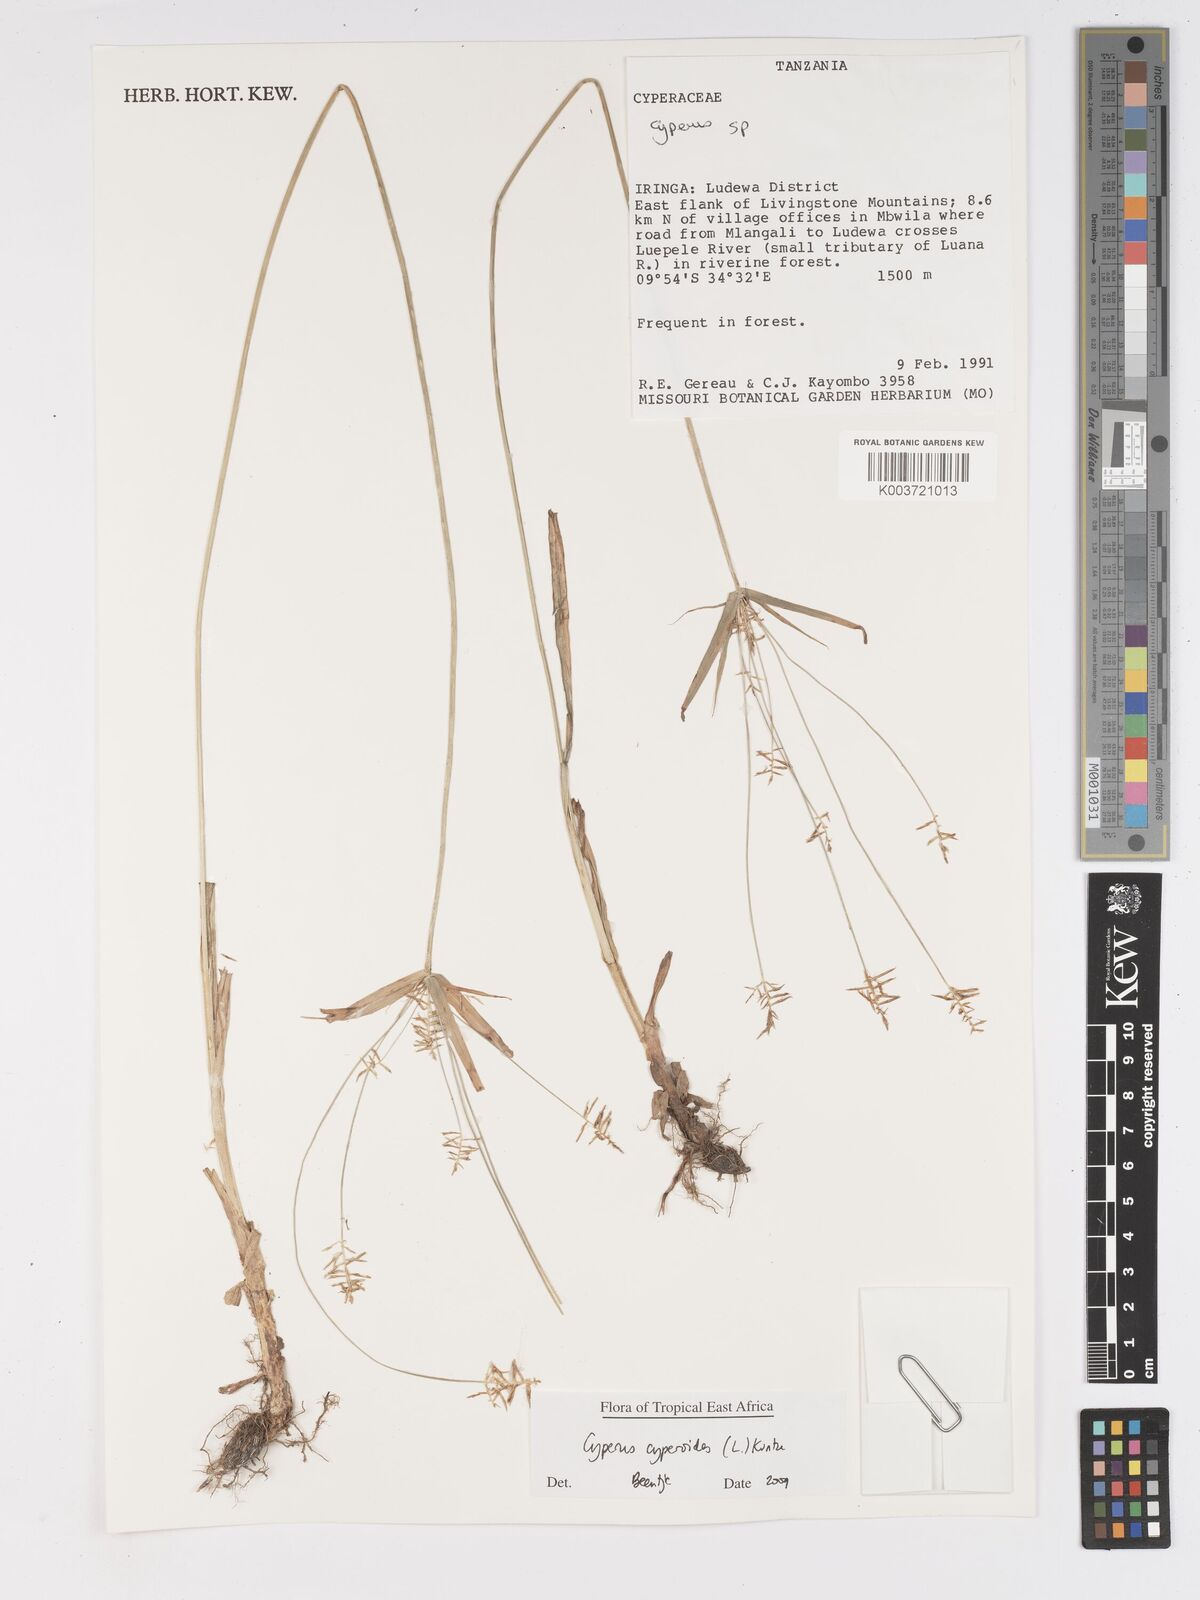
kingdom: Plantae
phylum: Tracheophyta
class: Liliopsida
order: Poales
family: Cyperaceae
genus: Cyperus
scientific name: Cyperus cyperoides
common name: Pacific island flat sedge
